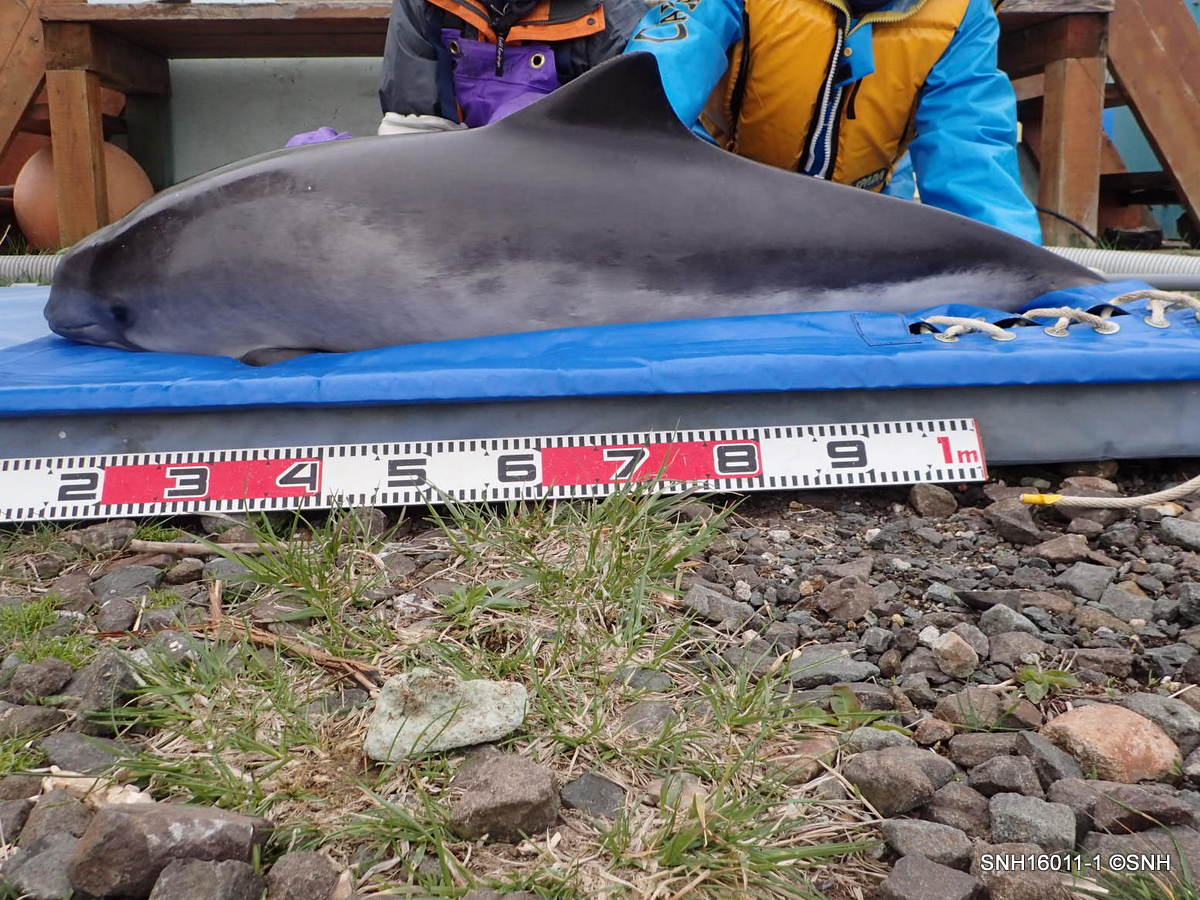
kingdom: Animalia
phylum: Chordata
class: Mammalia
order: Cetacea
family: Phocoenidae
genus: Phocoena
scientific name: Phocoena phocoena
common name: Harbour porpoise
